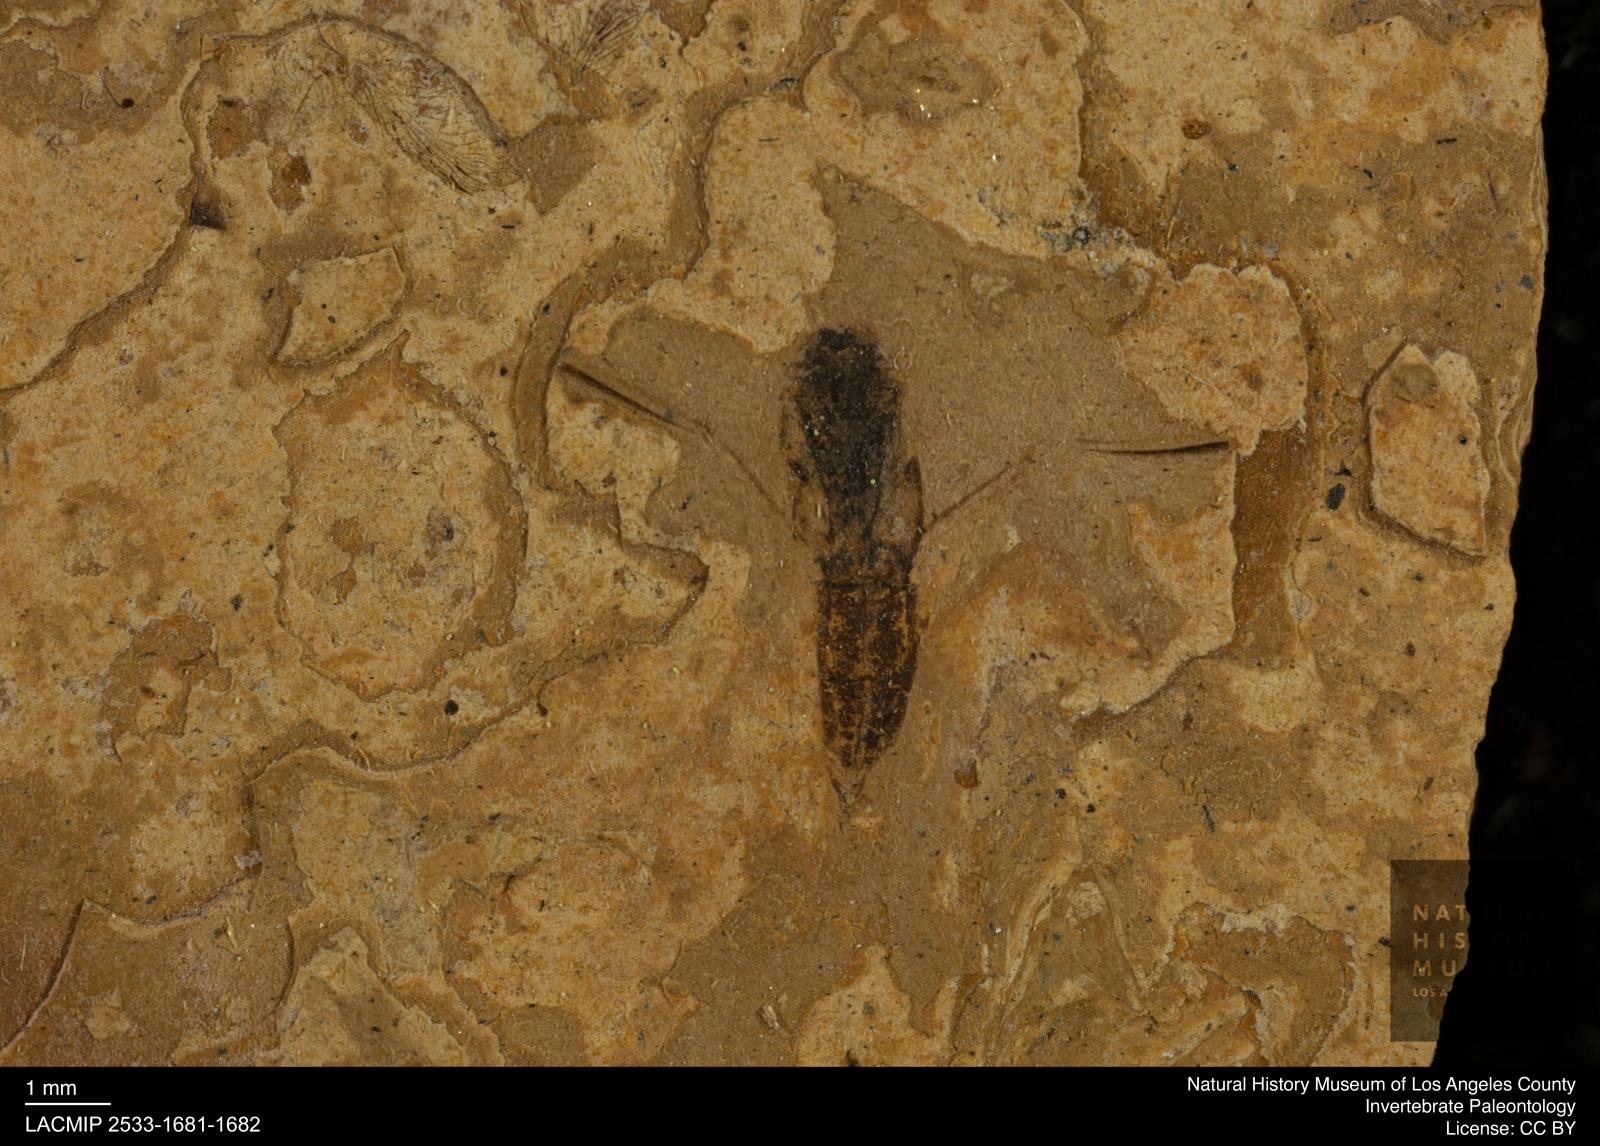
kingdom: Animalia
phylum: Arthropoda
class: Insecta
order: Hemiptera
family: Notonectidae
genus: Notonecta
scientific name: Notonecta
